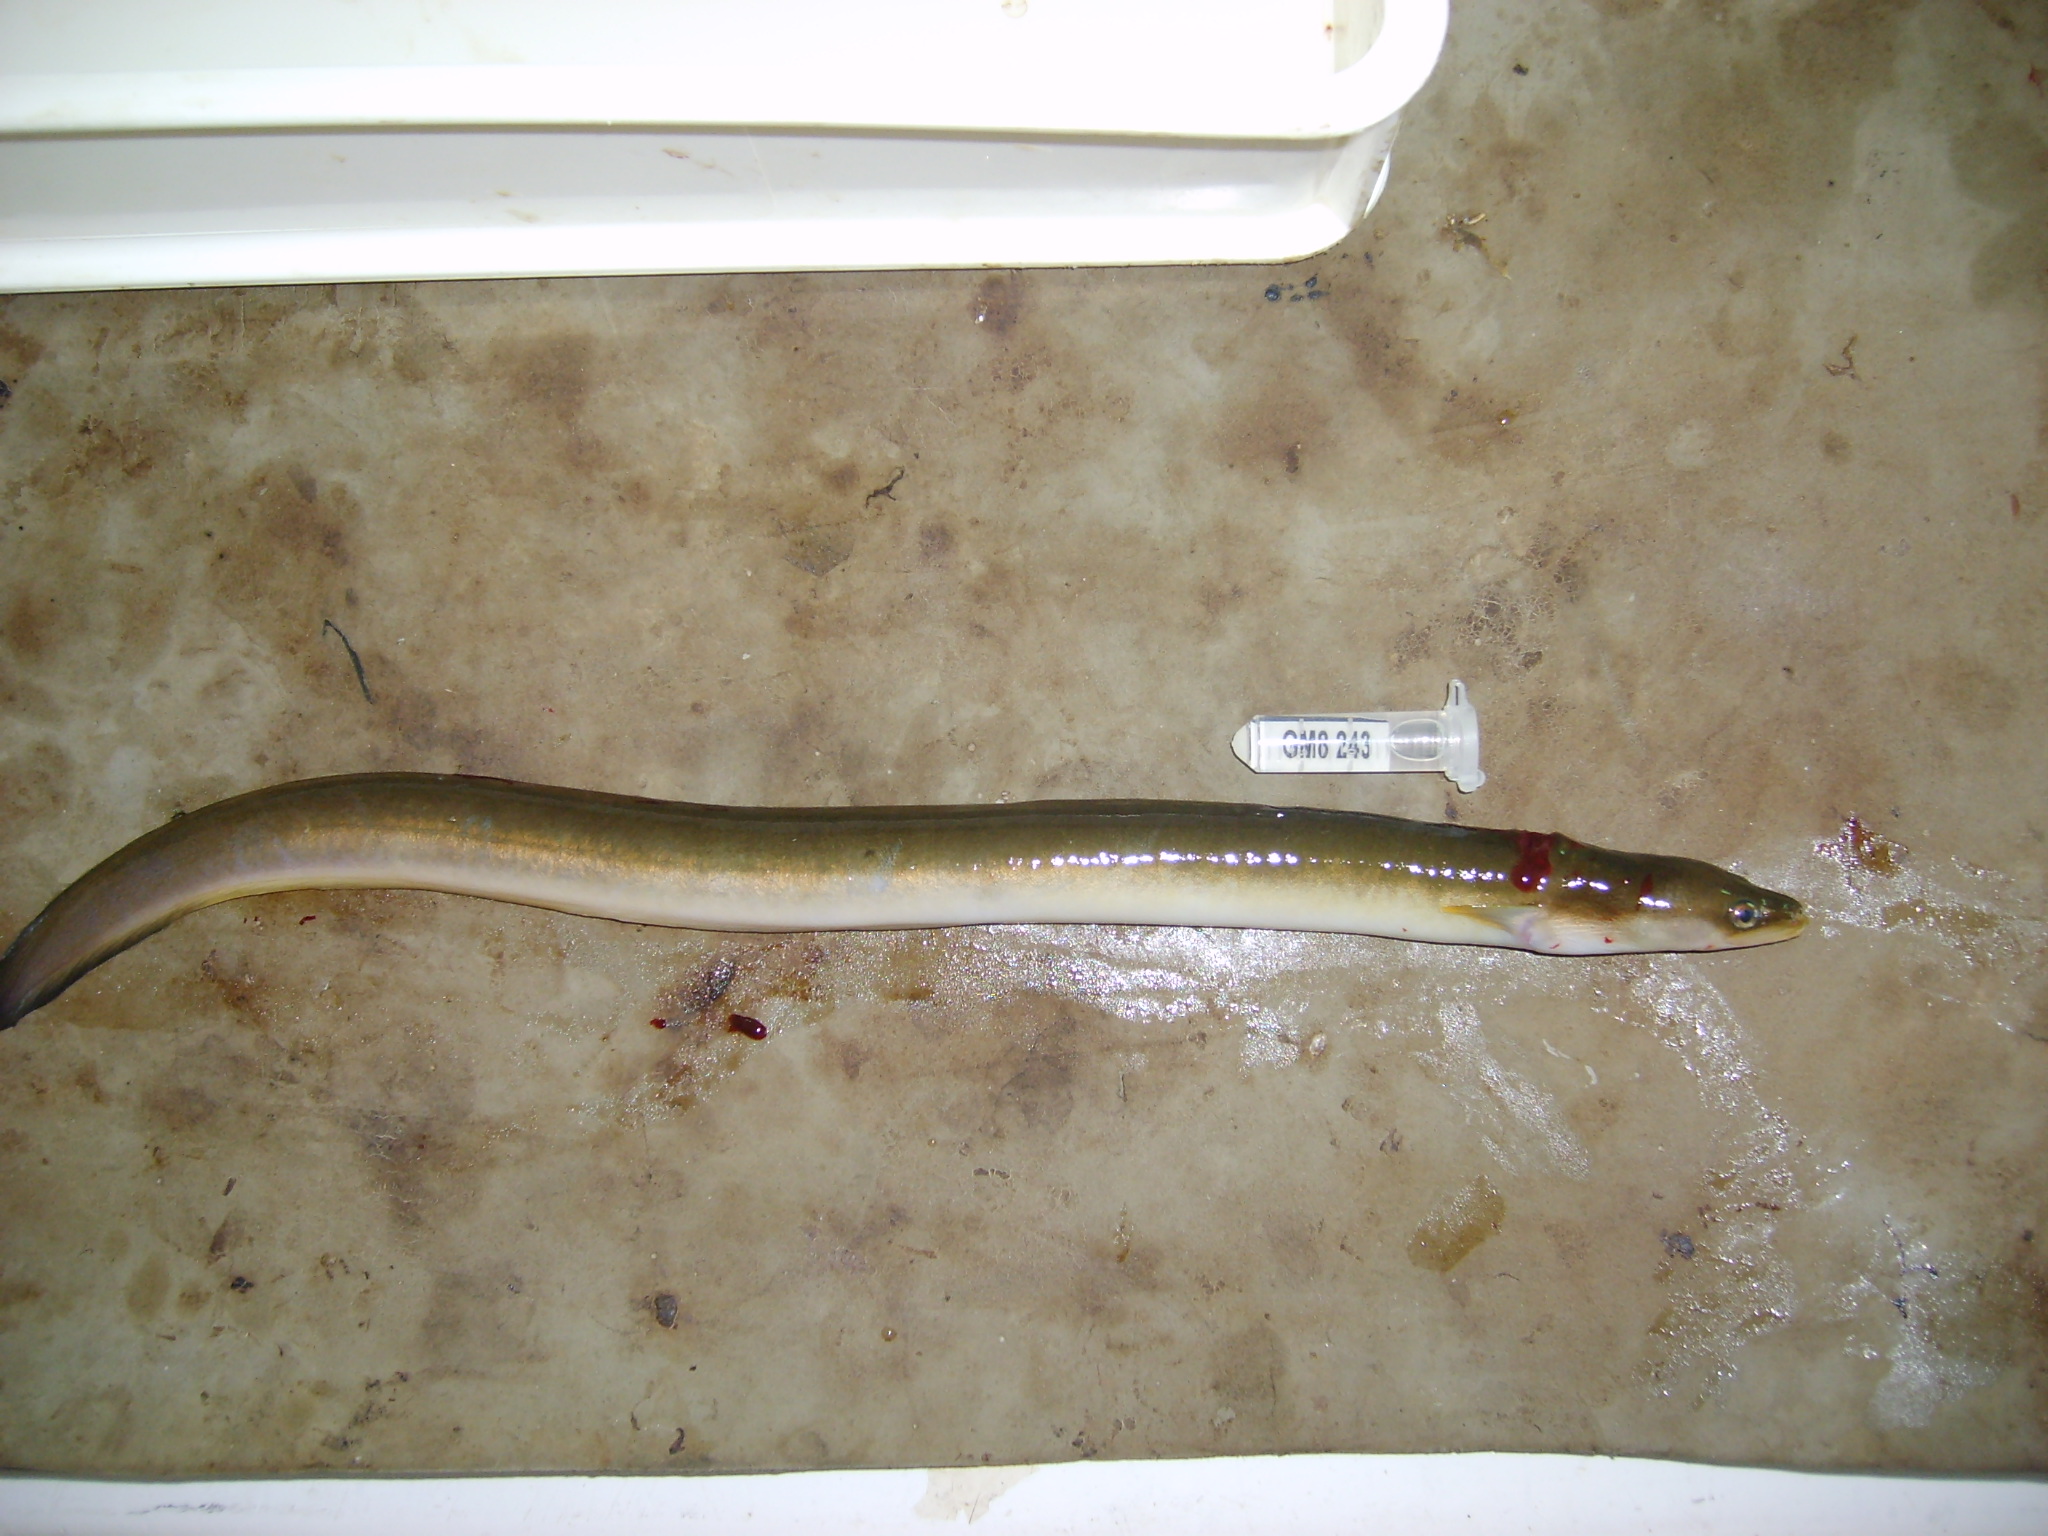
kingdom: Animalia
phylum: Chordata
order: Anguilliformes
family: Anguillidae
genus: Anguilla
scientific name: Anguilla mossambica
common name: African longfin eel
